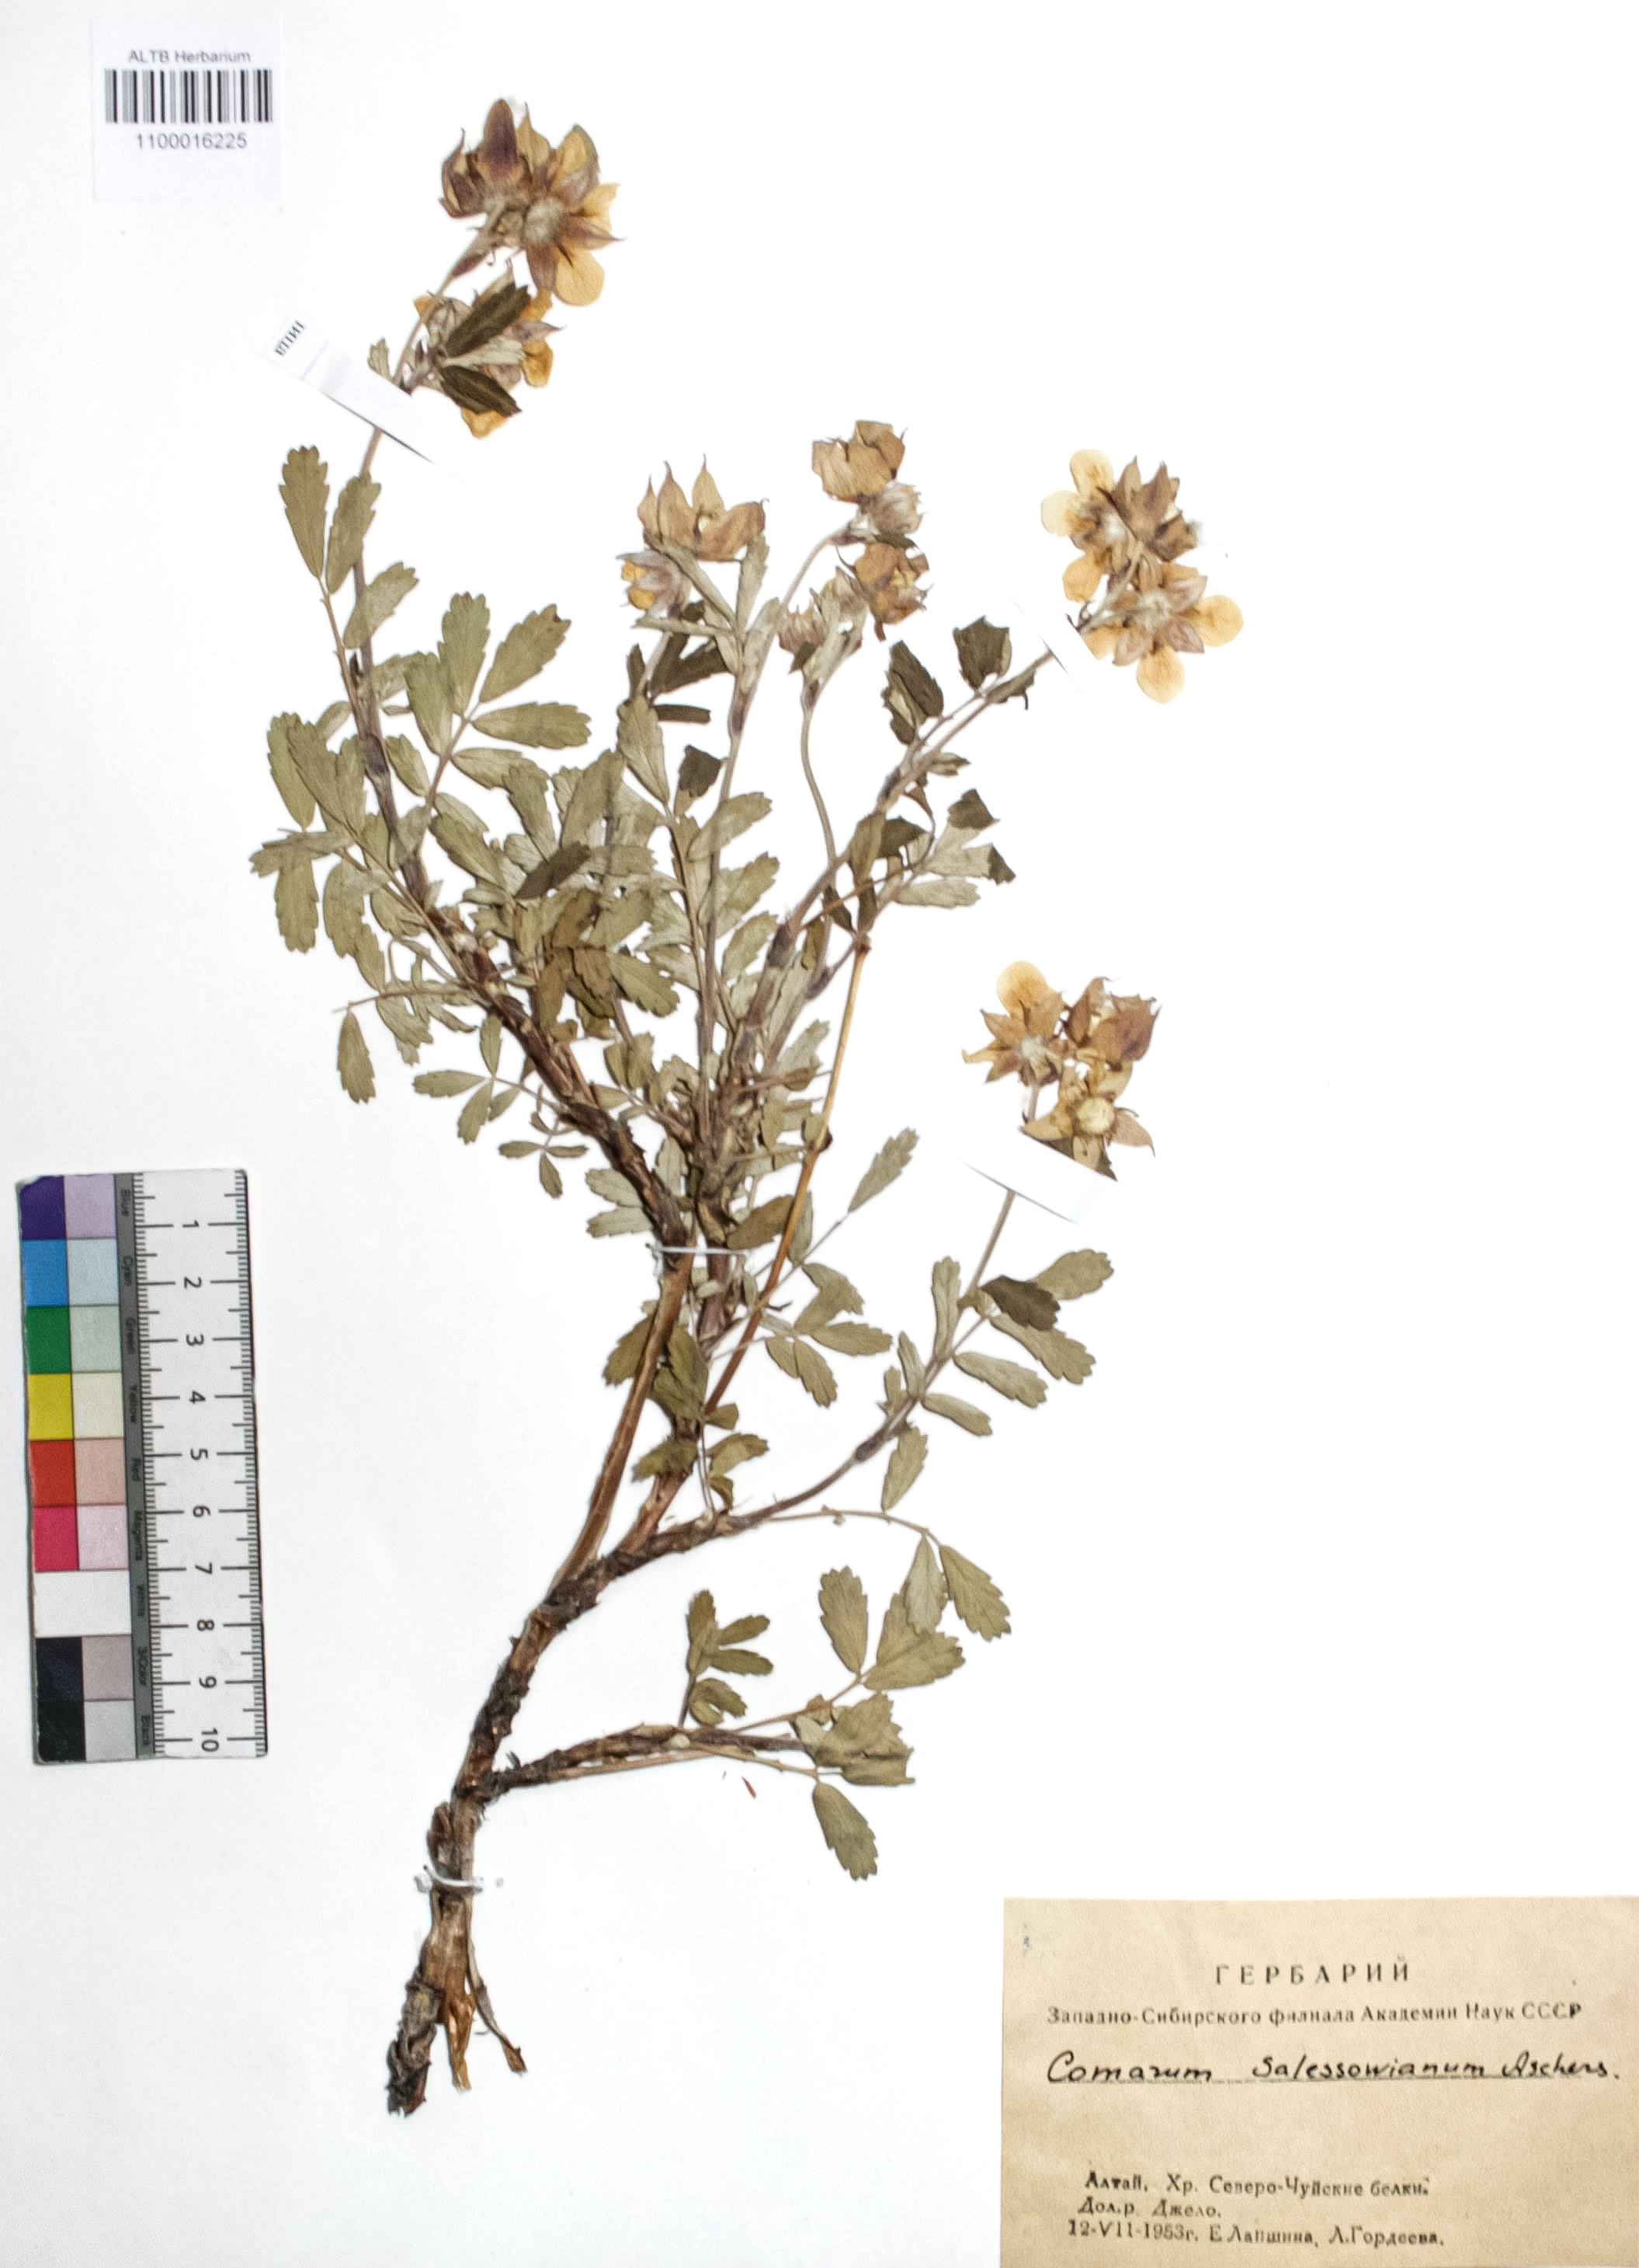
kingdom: Plantae
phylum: Tracheophyta
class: Magnoliopsida
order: Rosales
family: Rosaceae
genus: Farinopsis
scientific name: Farinopsis salesoviana
